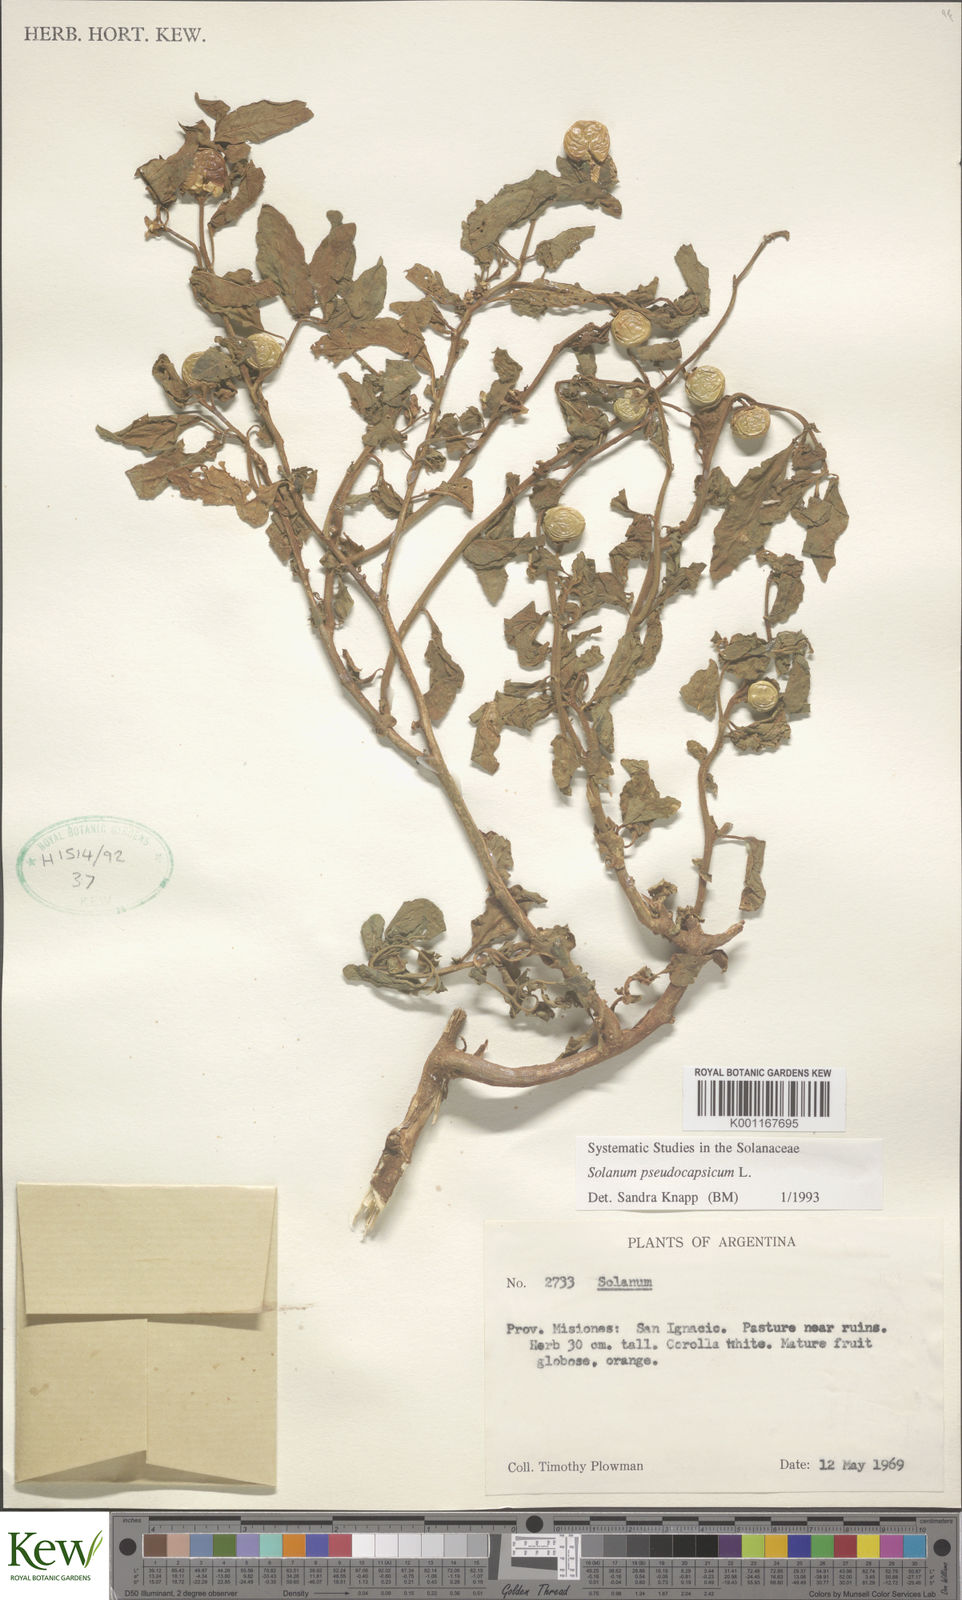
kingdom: Plantae
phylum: Tracheophyta
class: Magnoliopsida
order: Solanales
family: Solanaceae
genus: Solanum
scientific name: Solanum pseudocapsicum
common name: Jerusalem cherry
